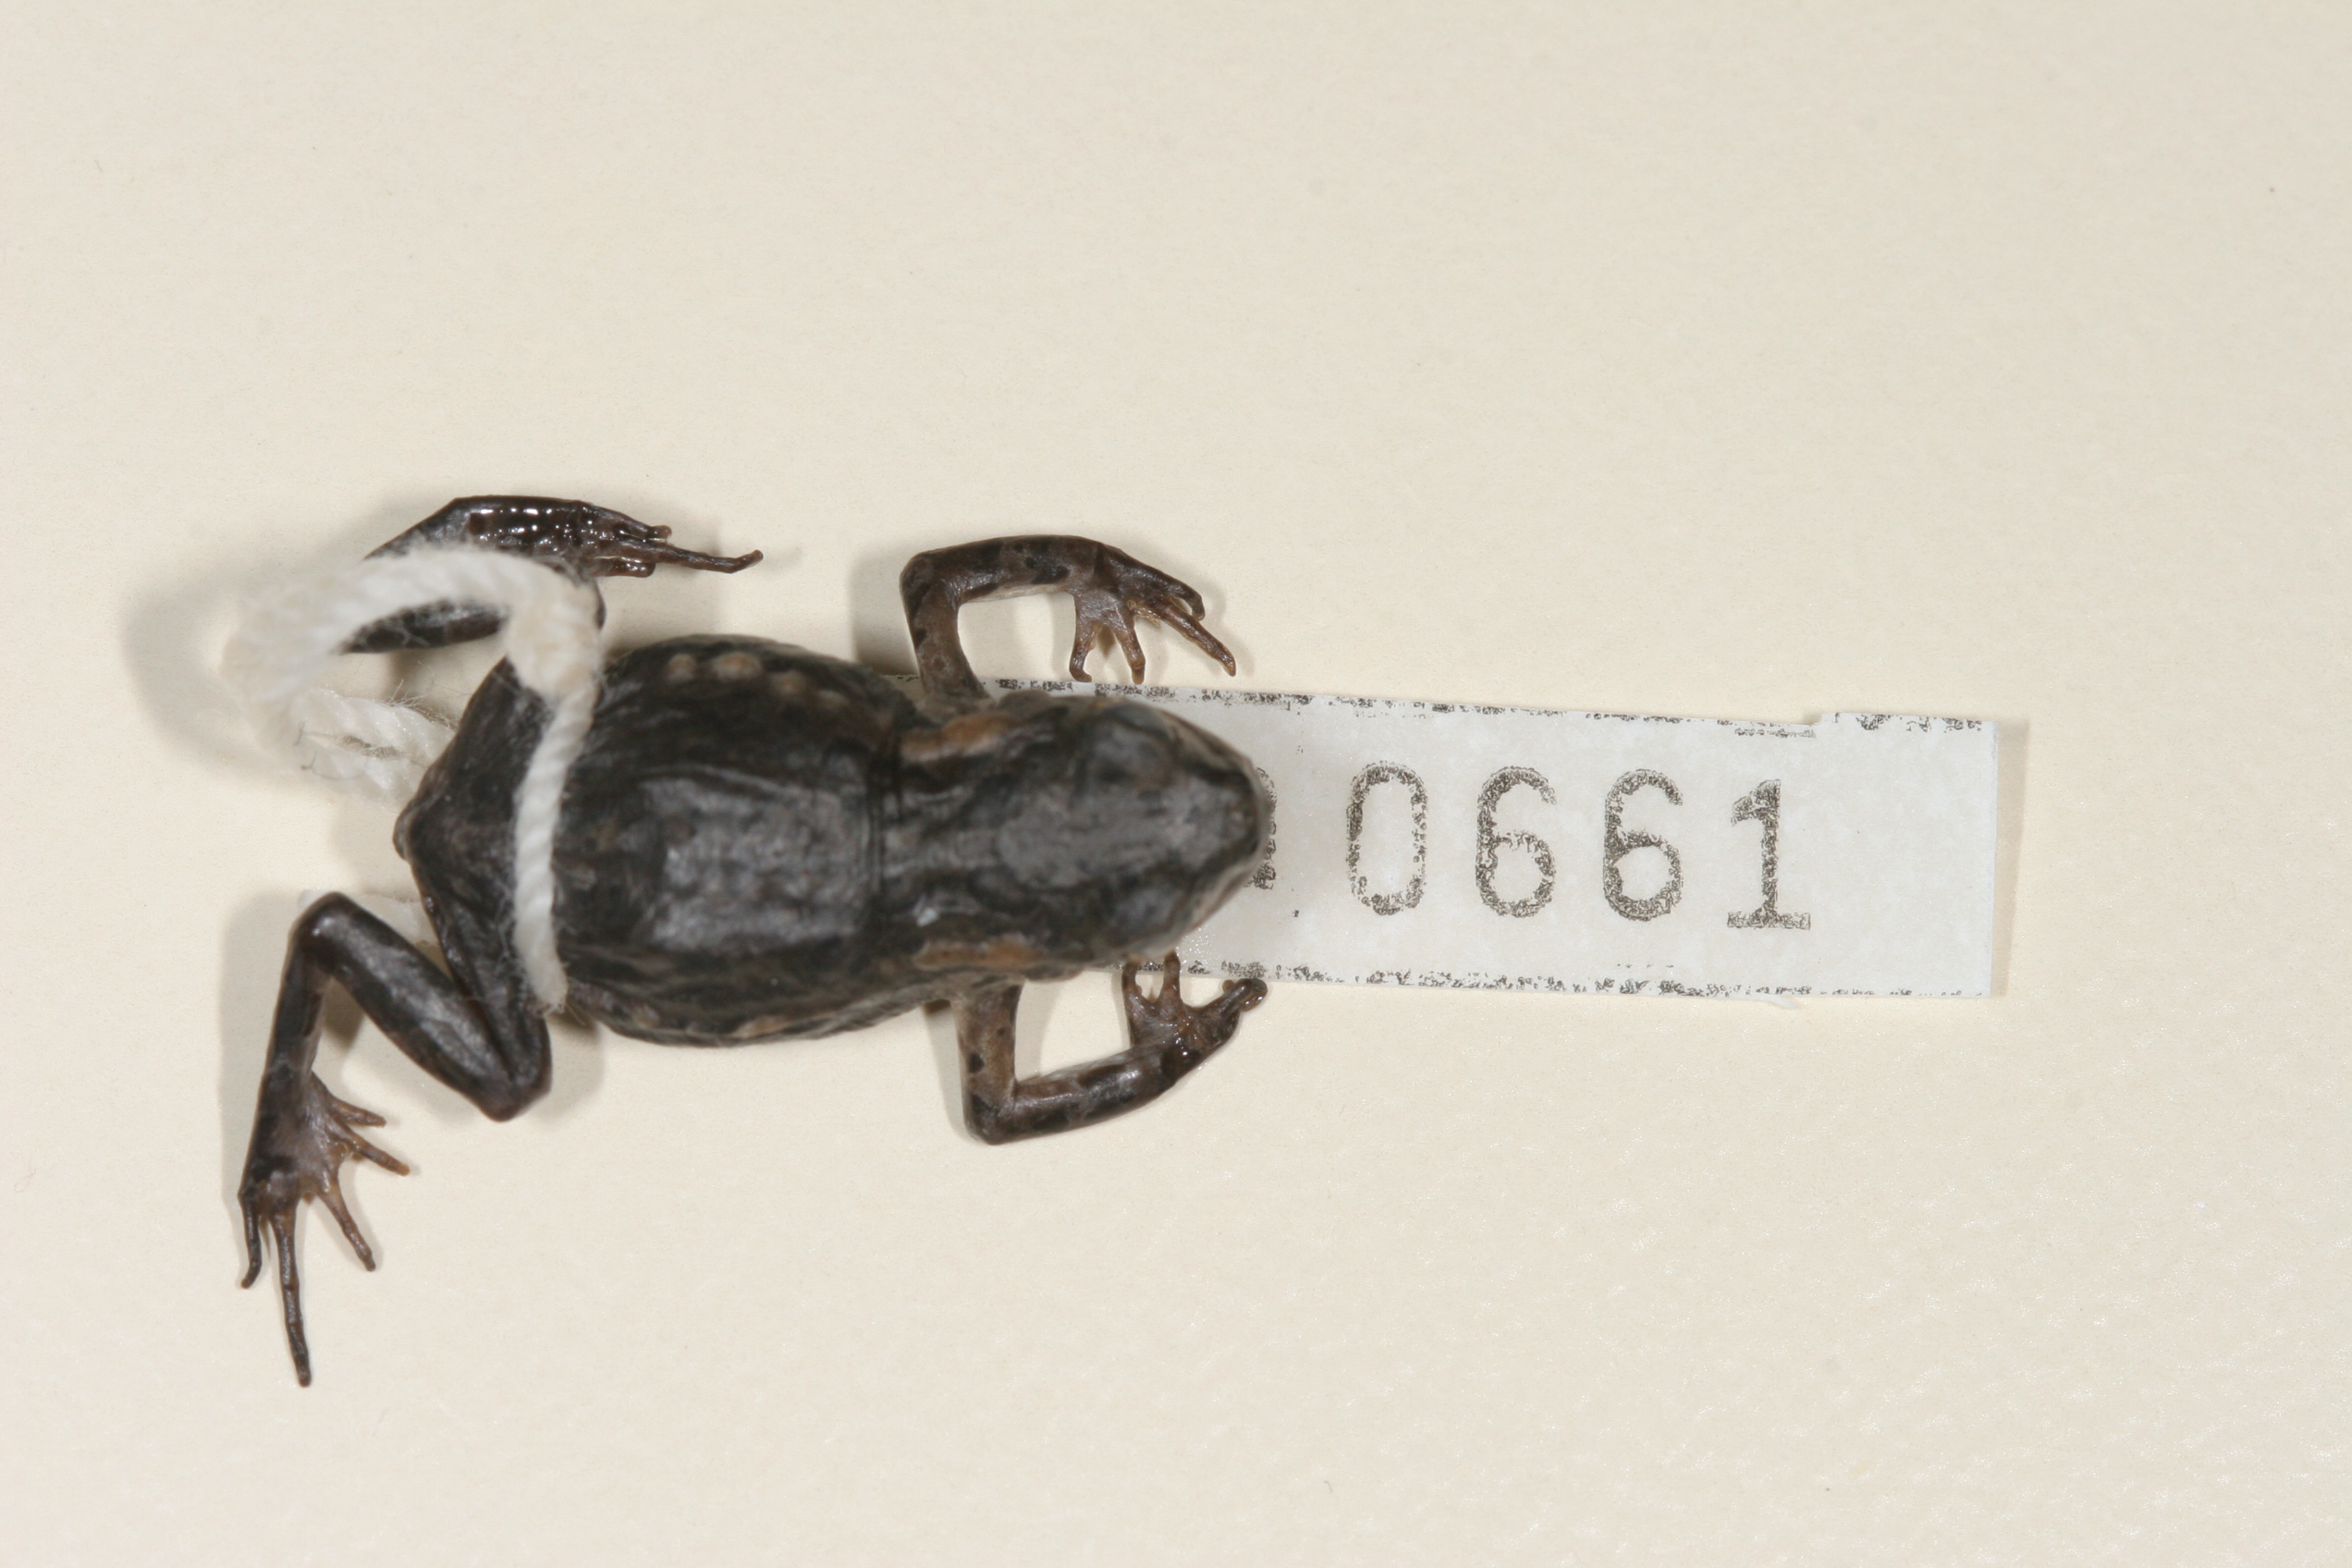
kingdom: Animalia
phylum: Chordata
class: Amphibia
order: Anura
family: Bufonidae
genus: Capensibufo
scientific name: Capensibufo rosei
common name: Cape mountain toad
